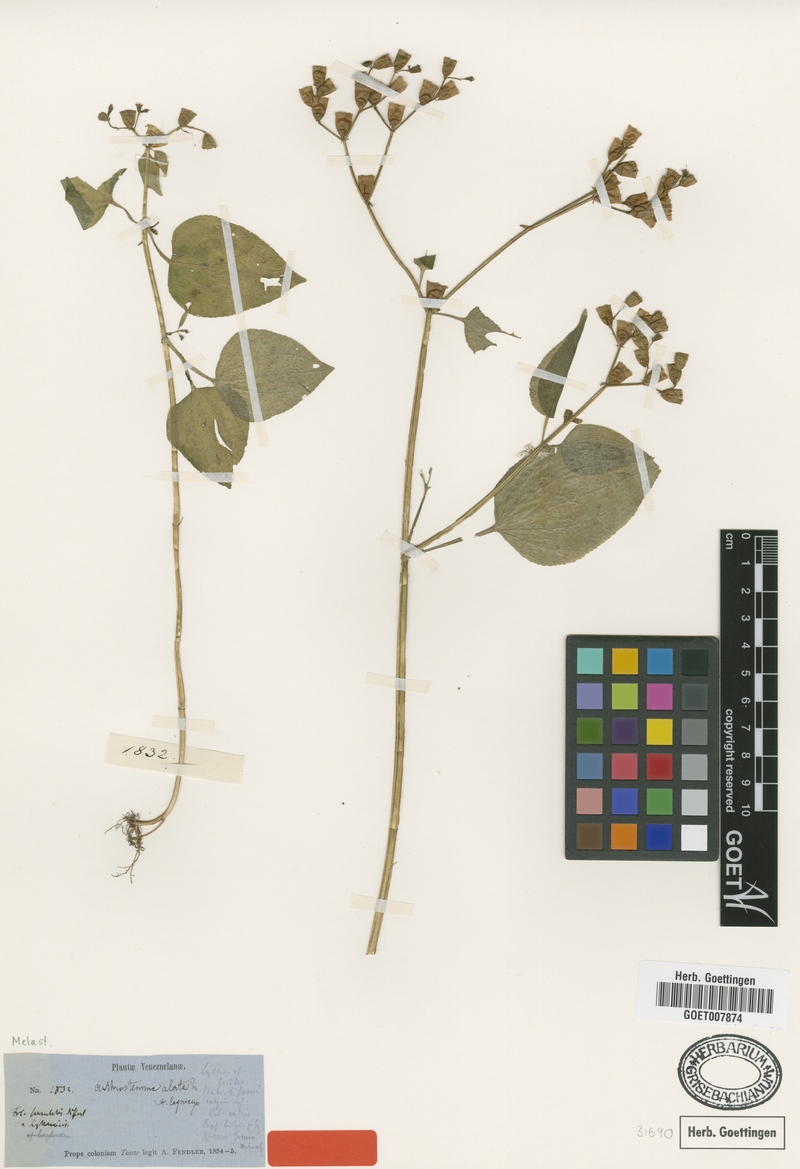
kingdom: Plantae
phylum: Tracheophyta
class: Magnoliopsida
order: Myrtales
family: Melastomataceae
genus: Arthrostemma
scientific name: Arthrostemma Arthrostema alatum
